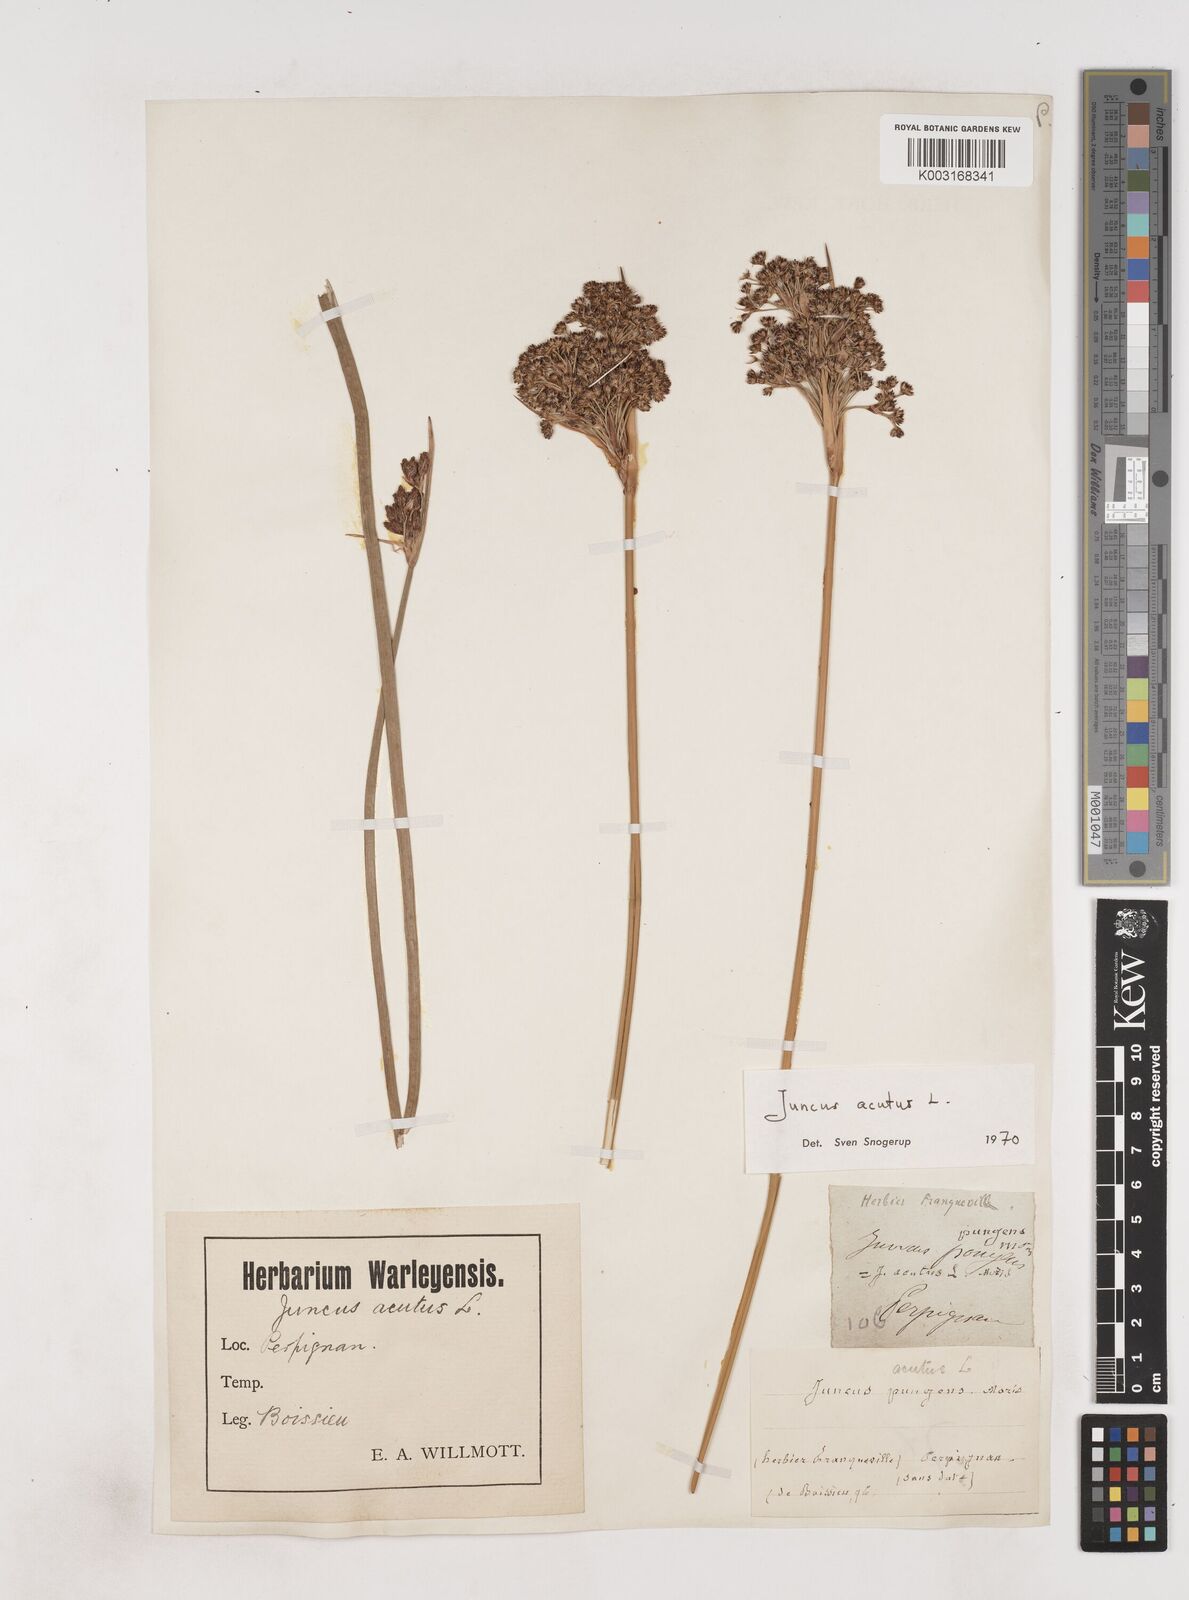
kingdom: Plantae
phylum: Tracheophyta
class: Liliopsida
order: Poales
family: Juncaceae
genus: Juncus
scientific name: Juncus acutus
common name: Sharp rush
